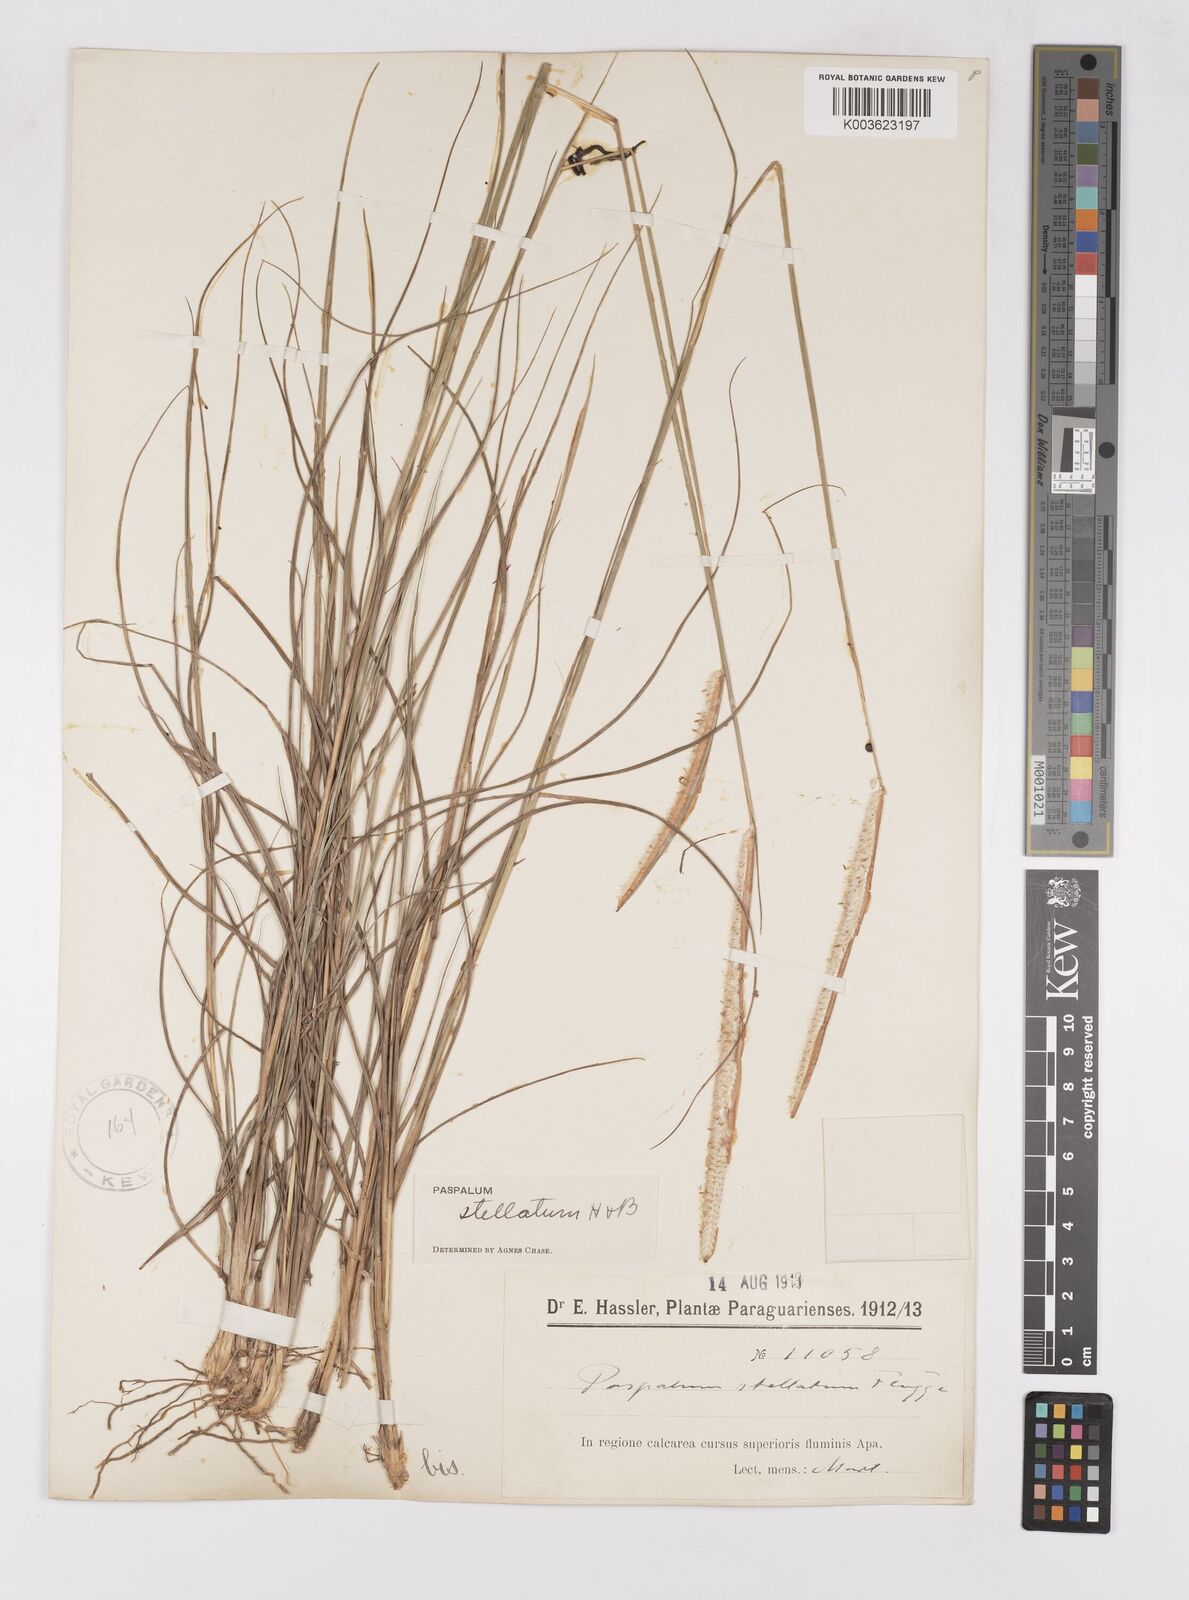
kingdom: Plantae
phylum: Tracheophyta
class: Liliopsida
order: Poales
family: Poaceae
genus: Paspalum
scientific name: Paspalum stellatum
